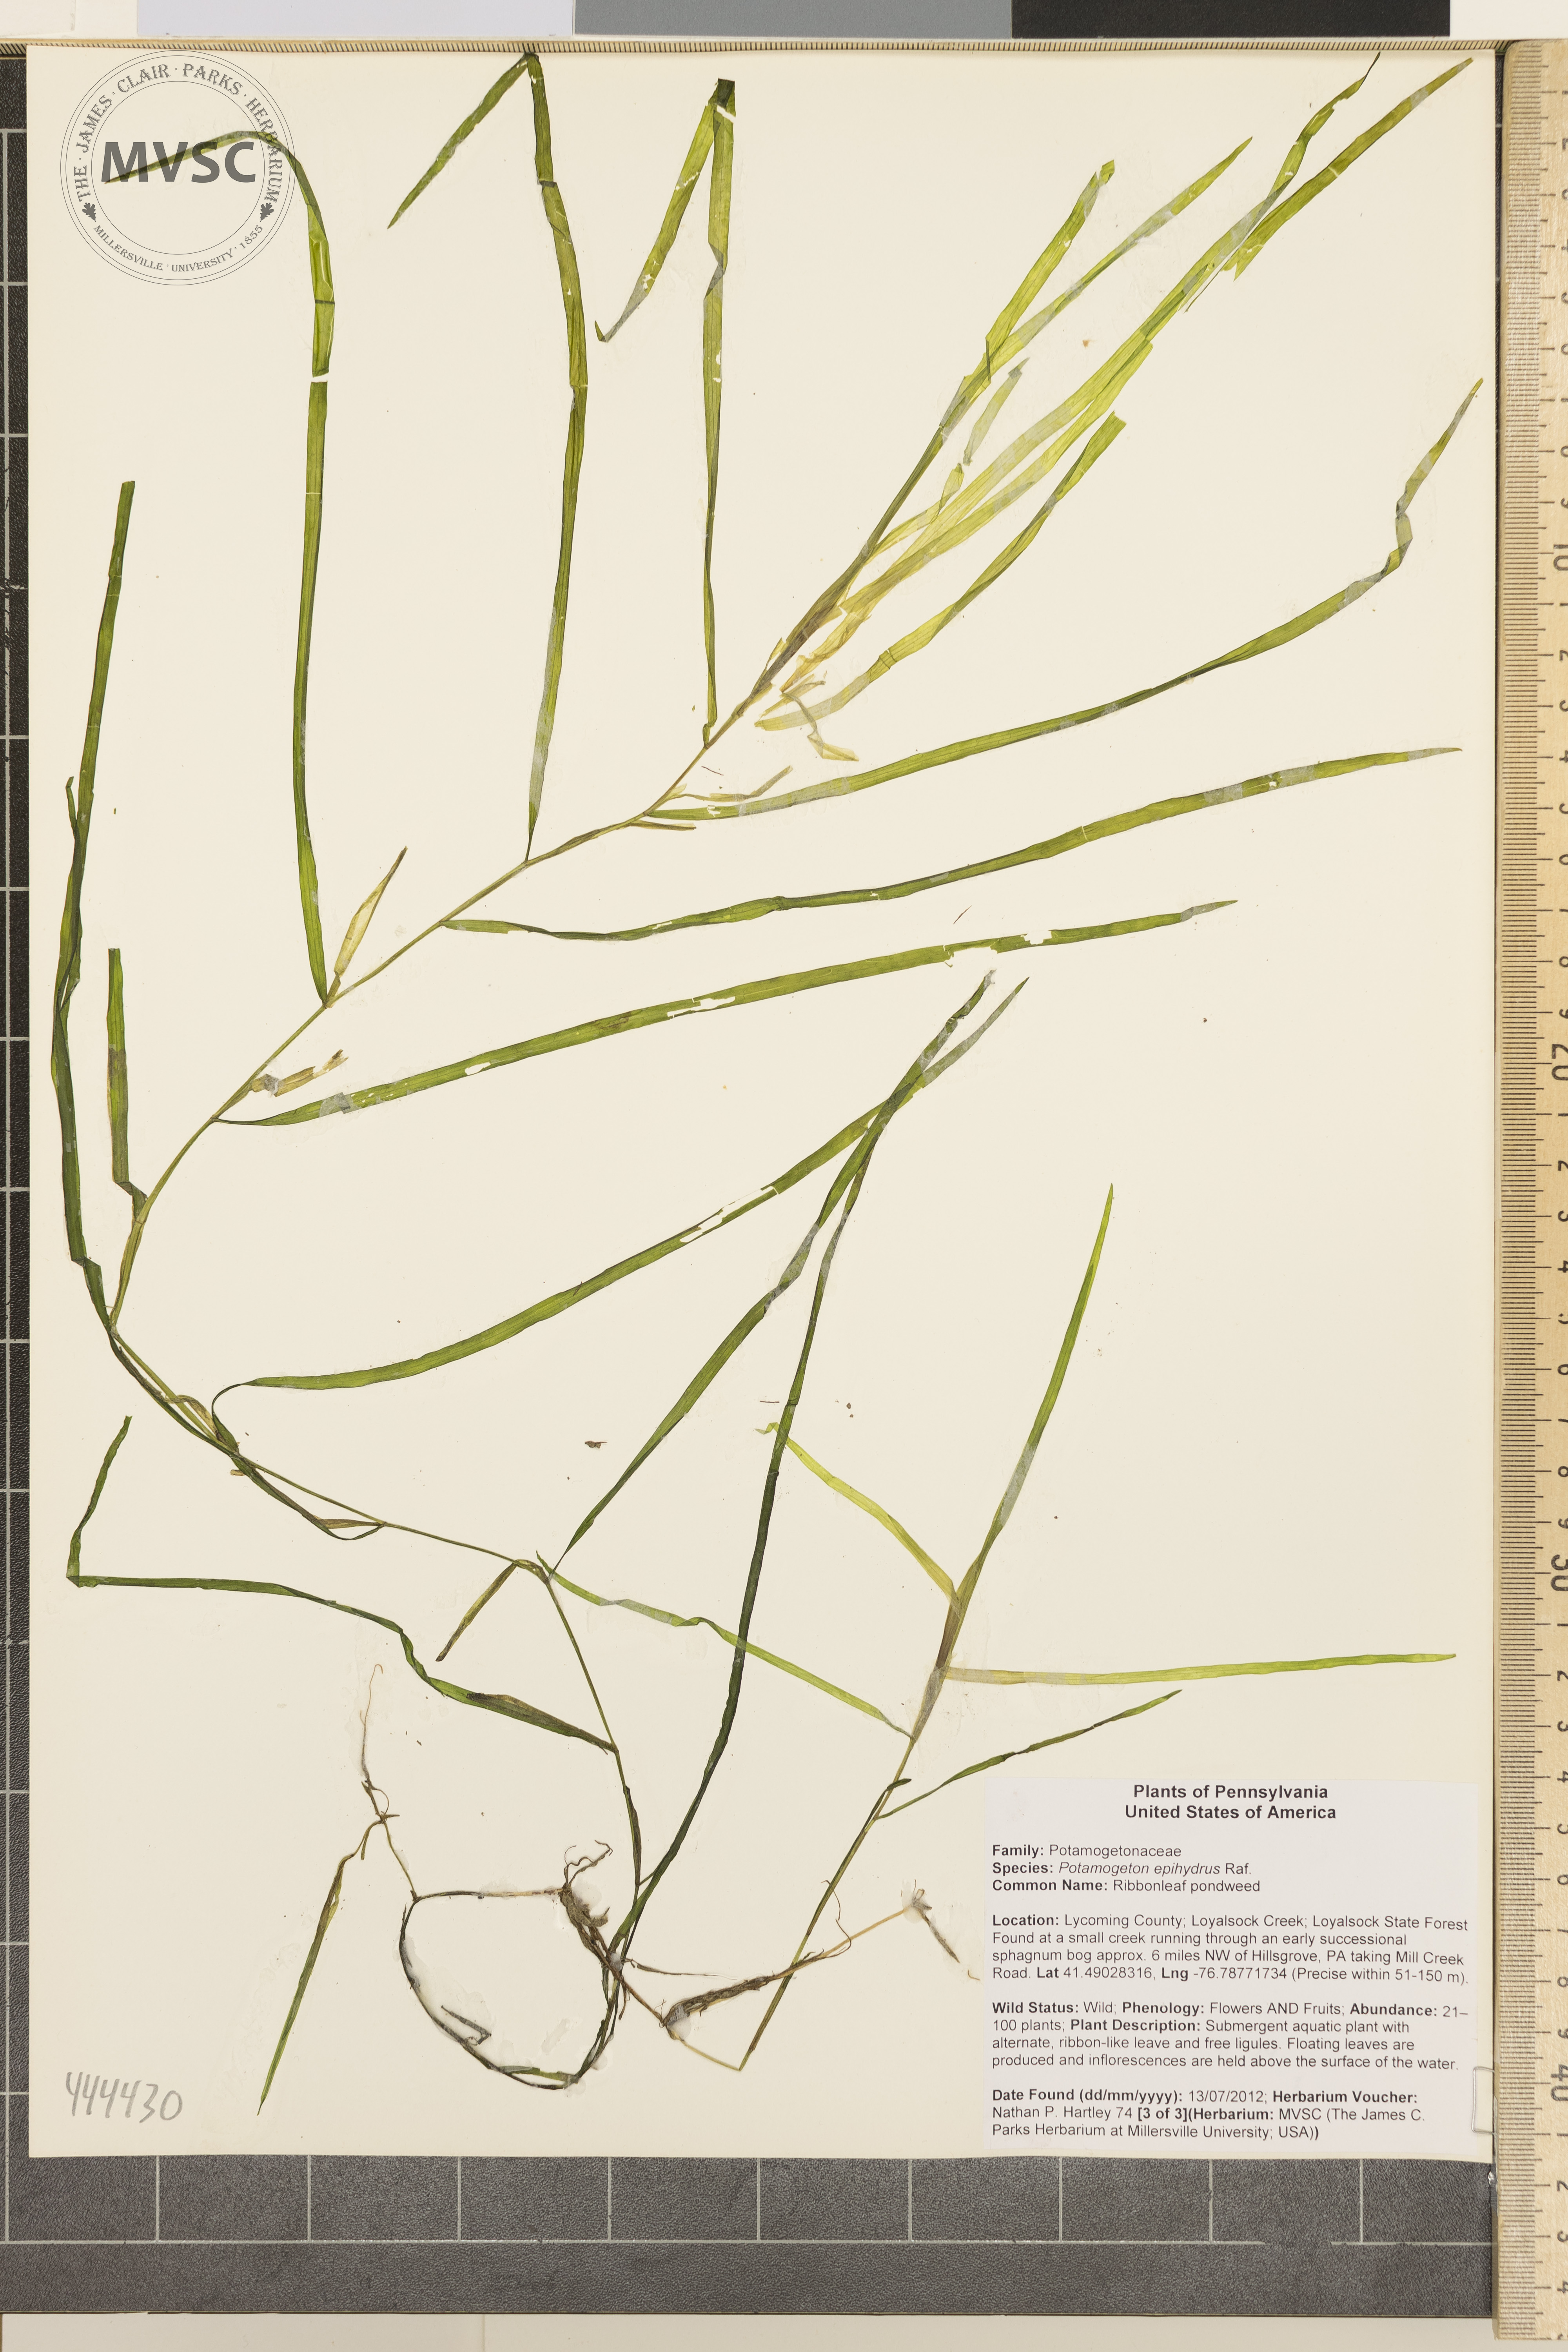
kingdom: Plantae
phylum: Tracheophyta
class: Liliopsida
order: Alismatales
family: Potamogetonaceae
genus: Potamogeton
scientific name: Potamogeton epihydrus
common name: Ribbonleaf pondweed
